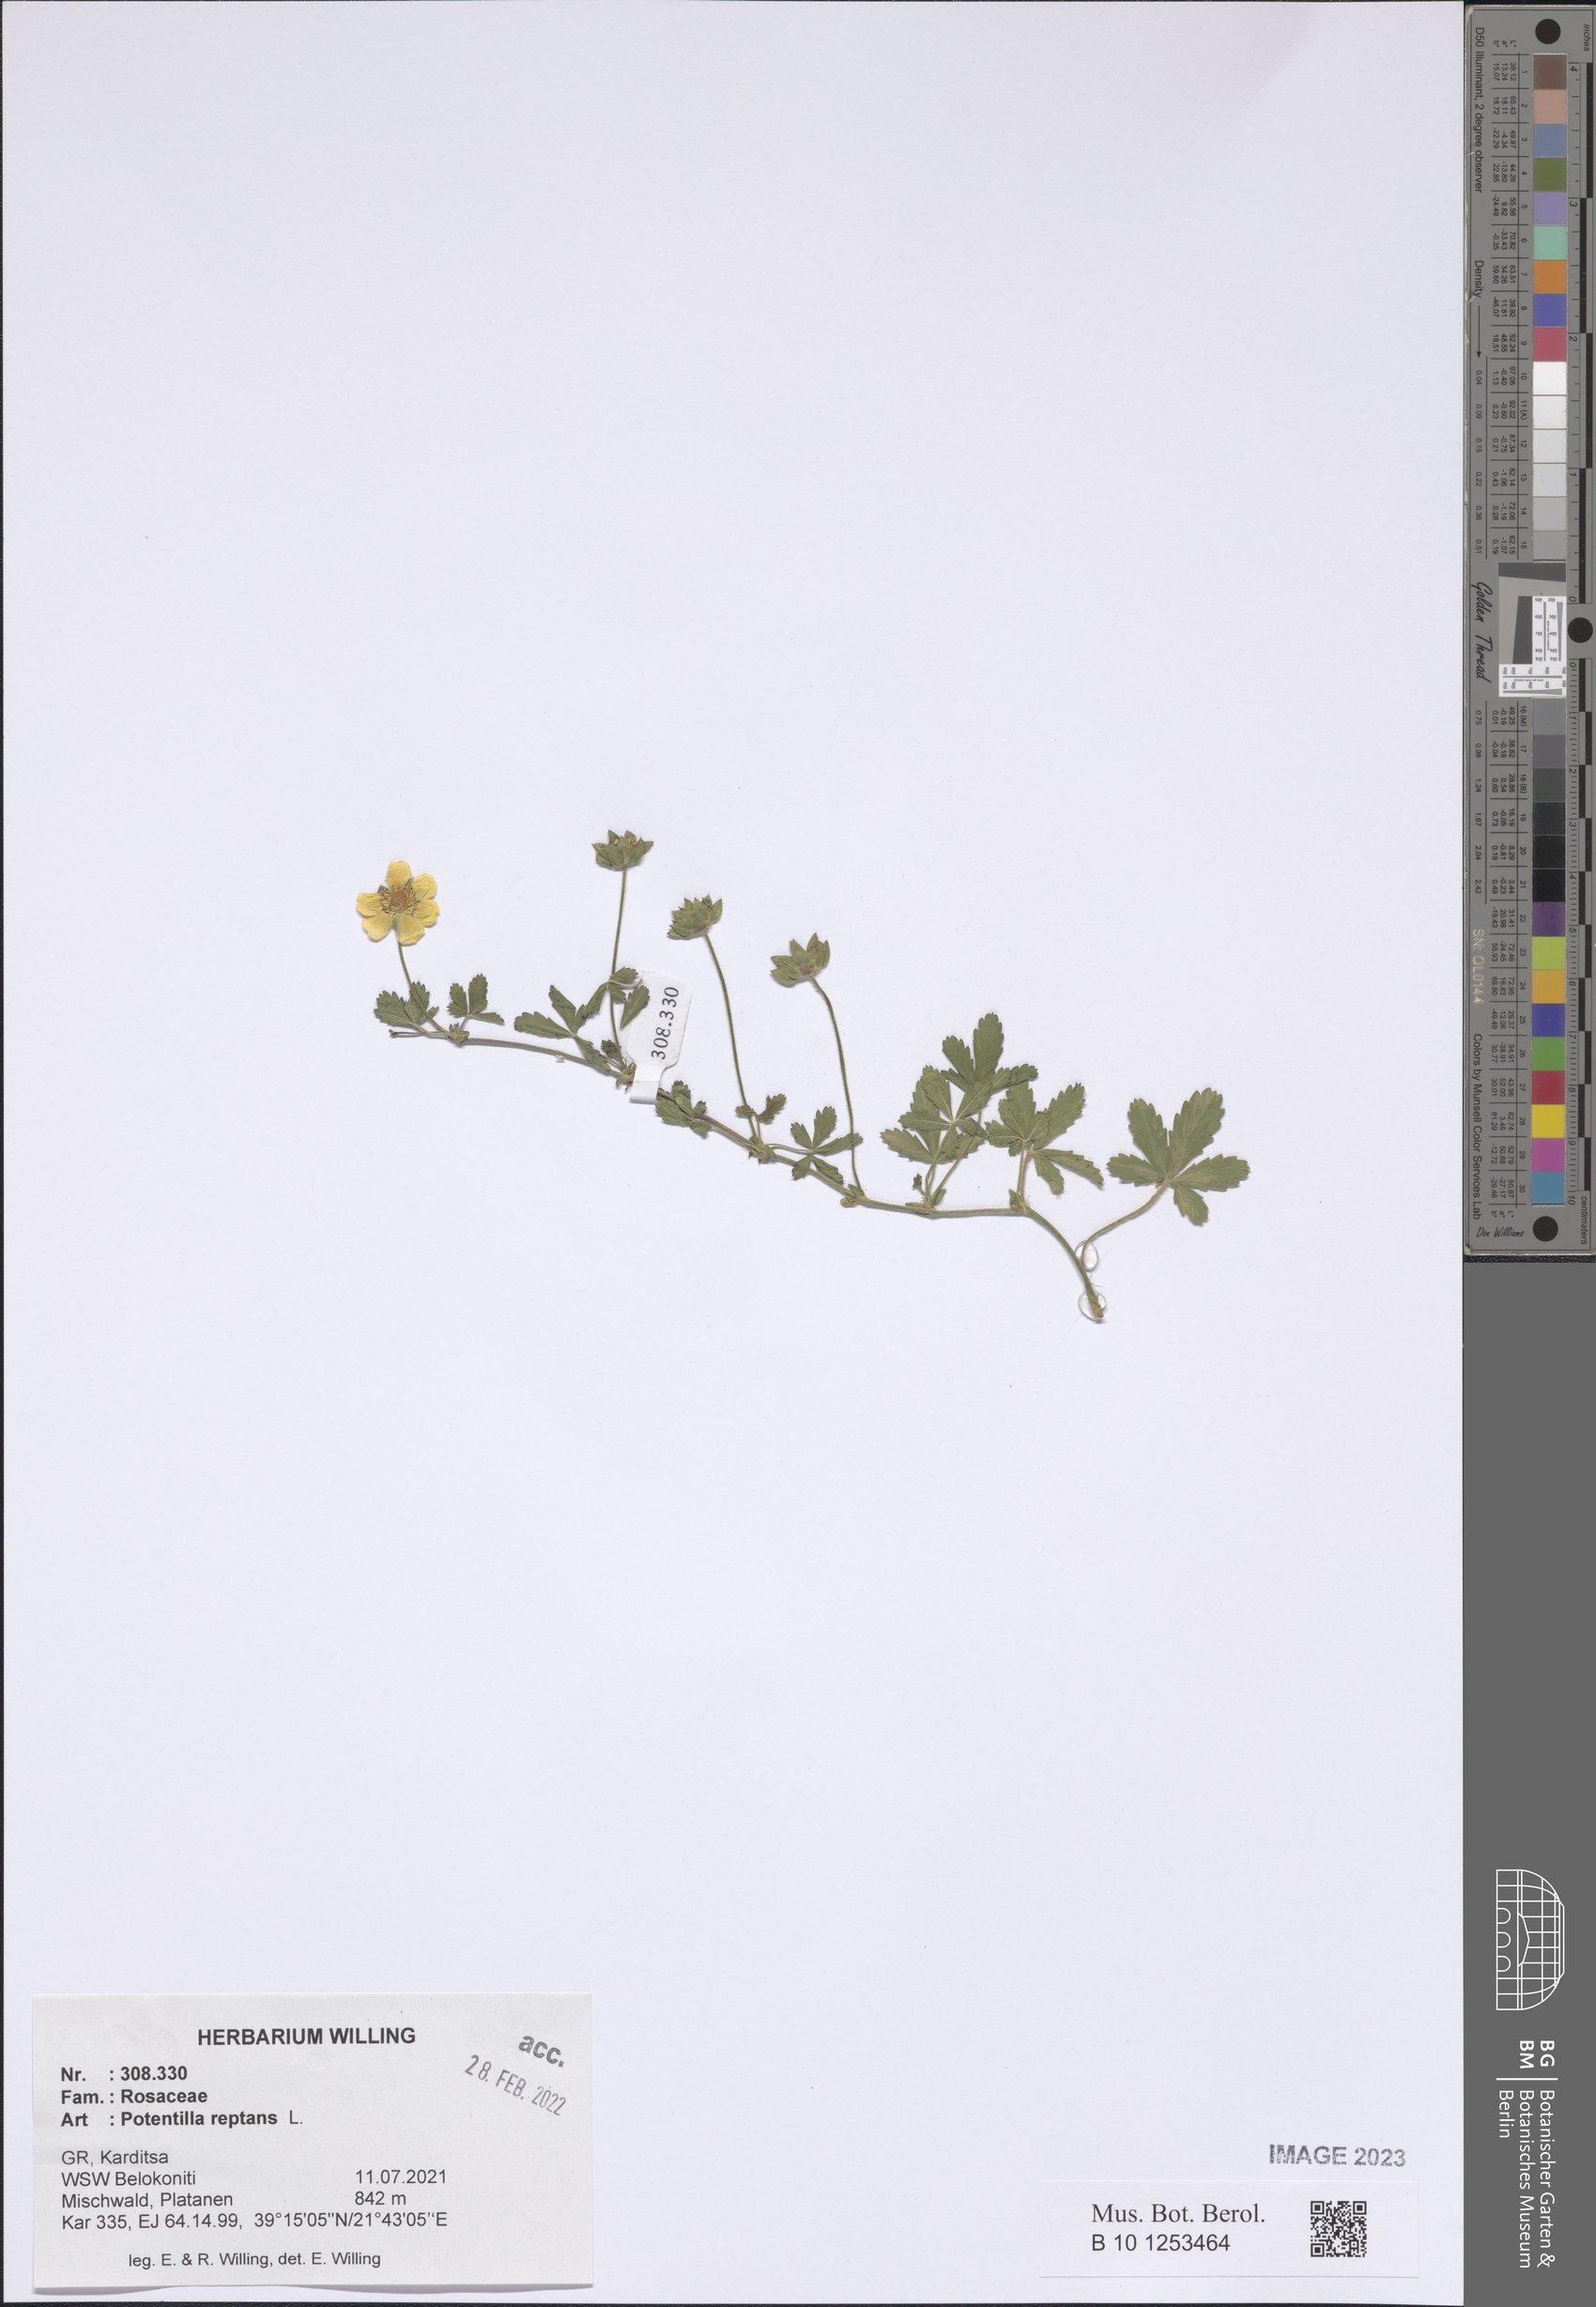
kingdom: Plantae
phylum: Tracheophyta
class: Magnoliopsida
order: Rosales
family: Rosaceae
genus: Potentilla
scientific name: Potentilla reptans
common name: Creeping cinquefoil
